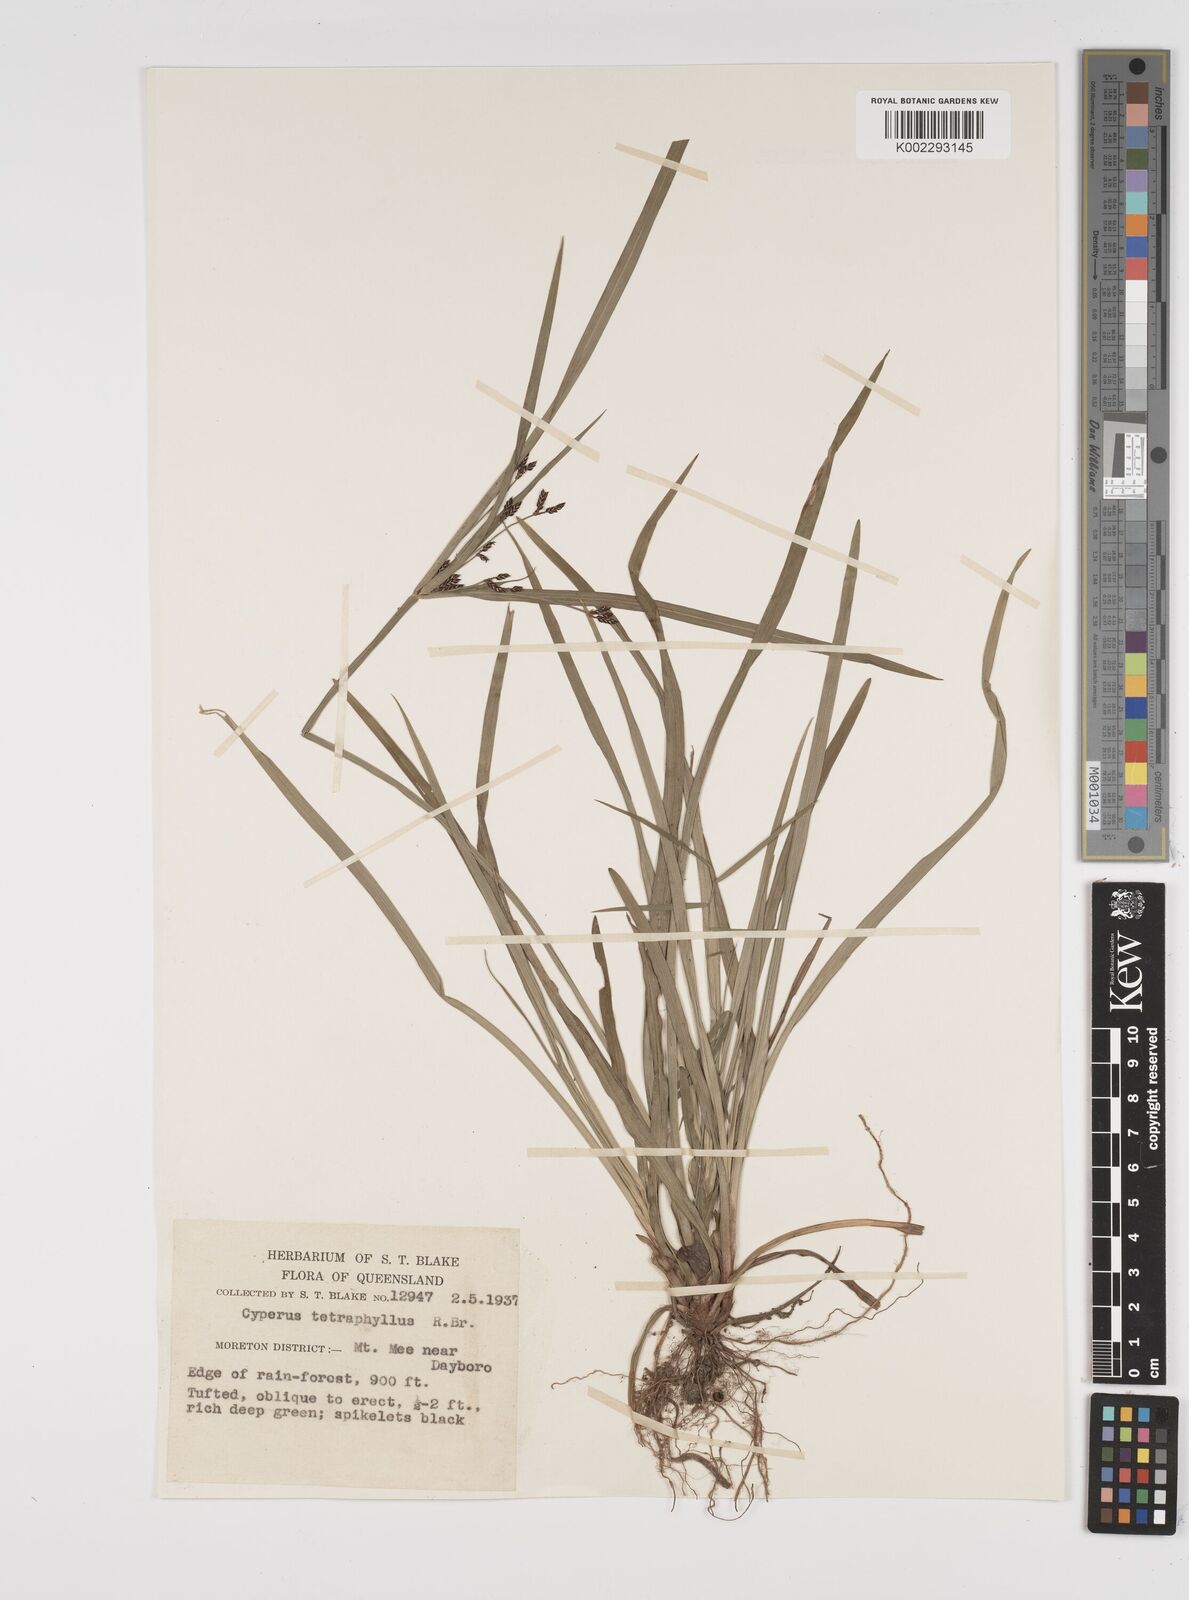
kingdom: Plantae
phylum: Tracheophyta
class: Liliopsida
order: Poales
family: Cyperaceae
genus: Cyperus
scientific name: Cyperus tetraphyllus
